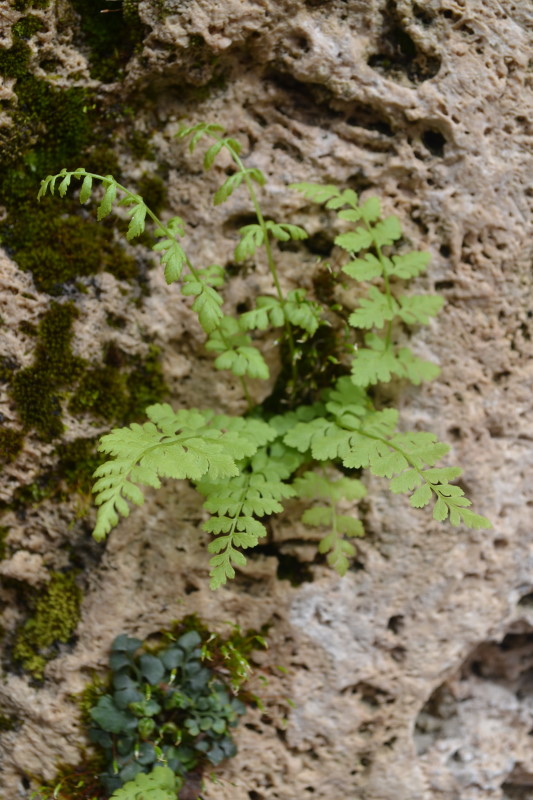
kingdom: Plantae
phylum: Tracheophyta
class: Polypodiopsida
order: Polypodiales
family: Aspleniaceae
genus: Asplenium
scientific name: Asplenium ruta-muraria
